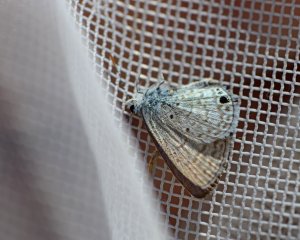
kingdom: Animalia
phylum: Arthropoda
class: Insecta
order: Lepidoptera
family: Lycaenidae
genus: Hemiargus
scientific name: Hemiargus ceraunus
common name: Ceraunus Blue
